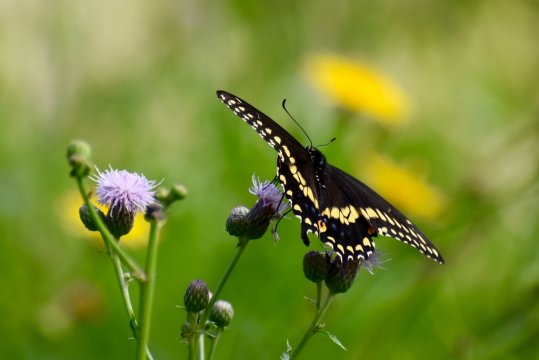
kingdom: Animalia
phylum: Arthropoda
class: Insecta
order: Lepidoptera
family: Papilionidae
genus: Papilio
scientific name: Papilio polyxenes
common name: Black Swallowtail
